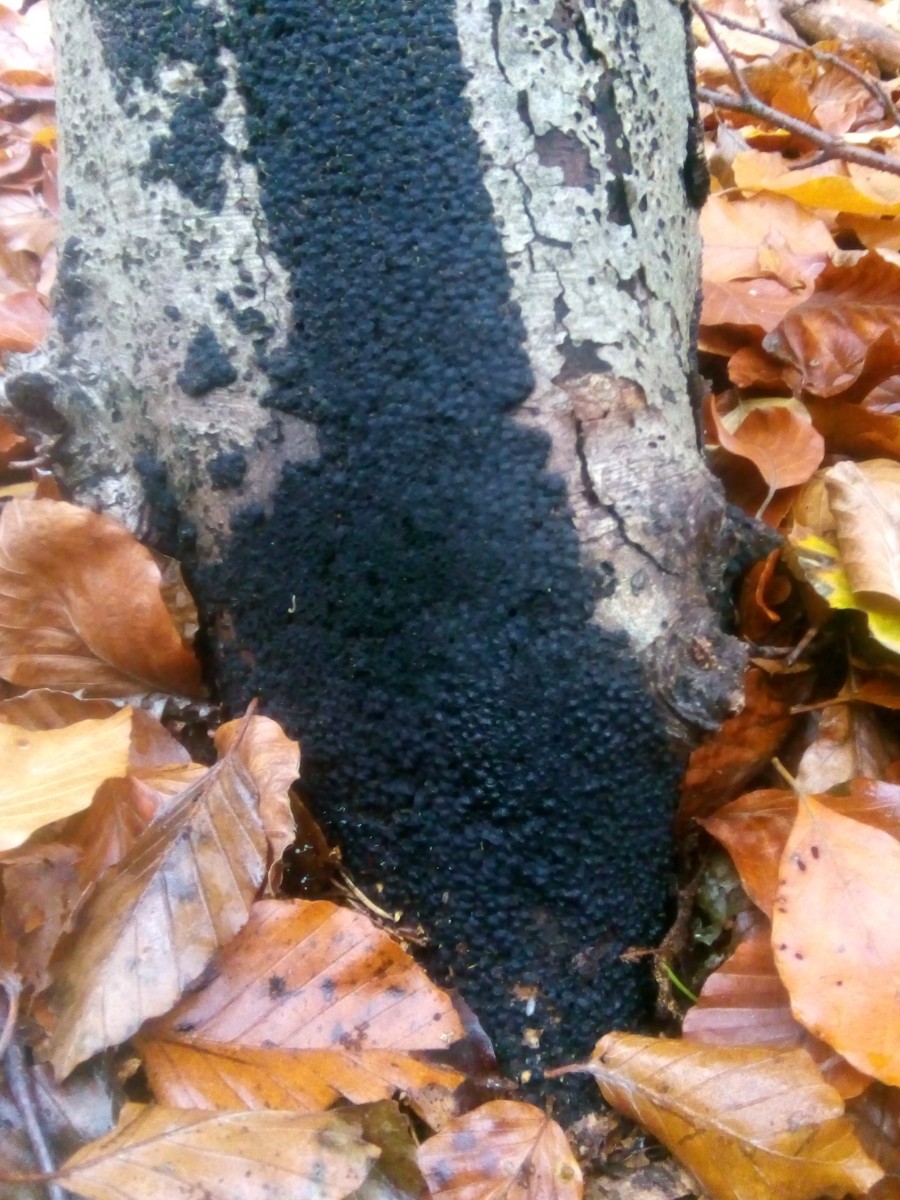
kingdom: Fungi
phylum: Ascomycota
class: Sordariomycetes
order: Xylariales
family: Melogrammataceae
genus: Melogramma
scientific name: Melogramma spiniferum
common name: bøgefod-kulhals
